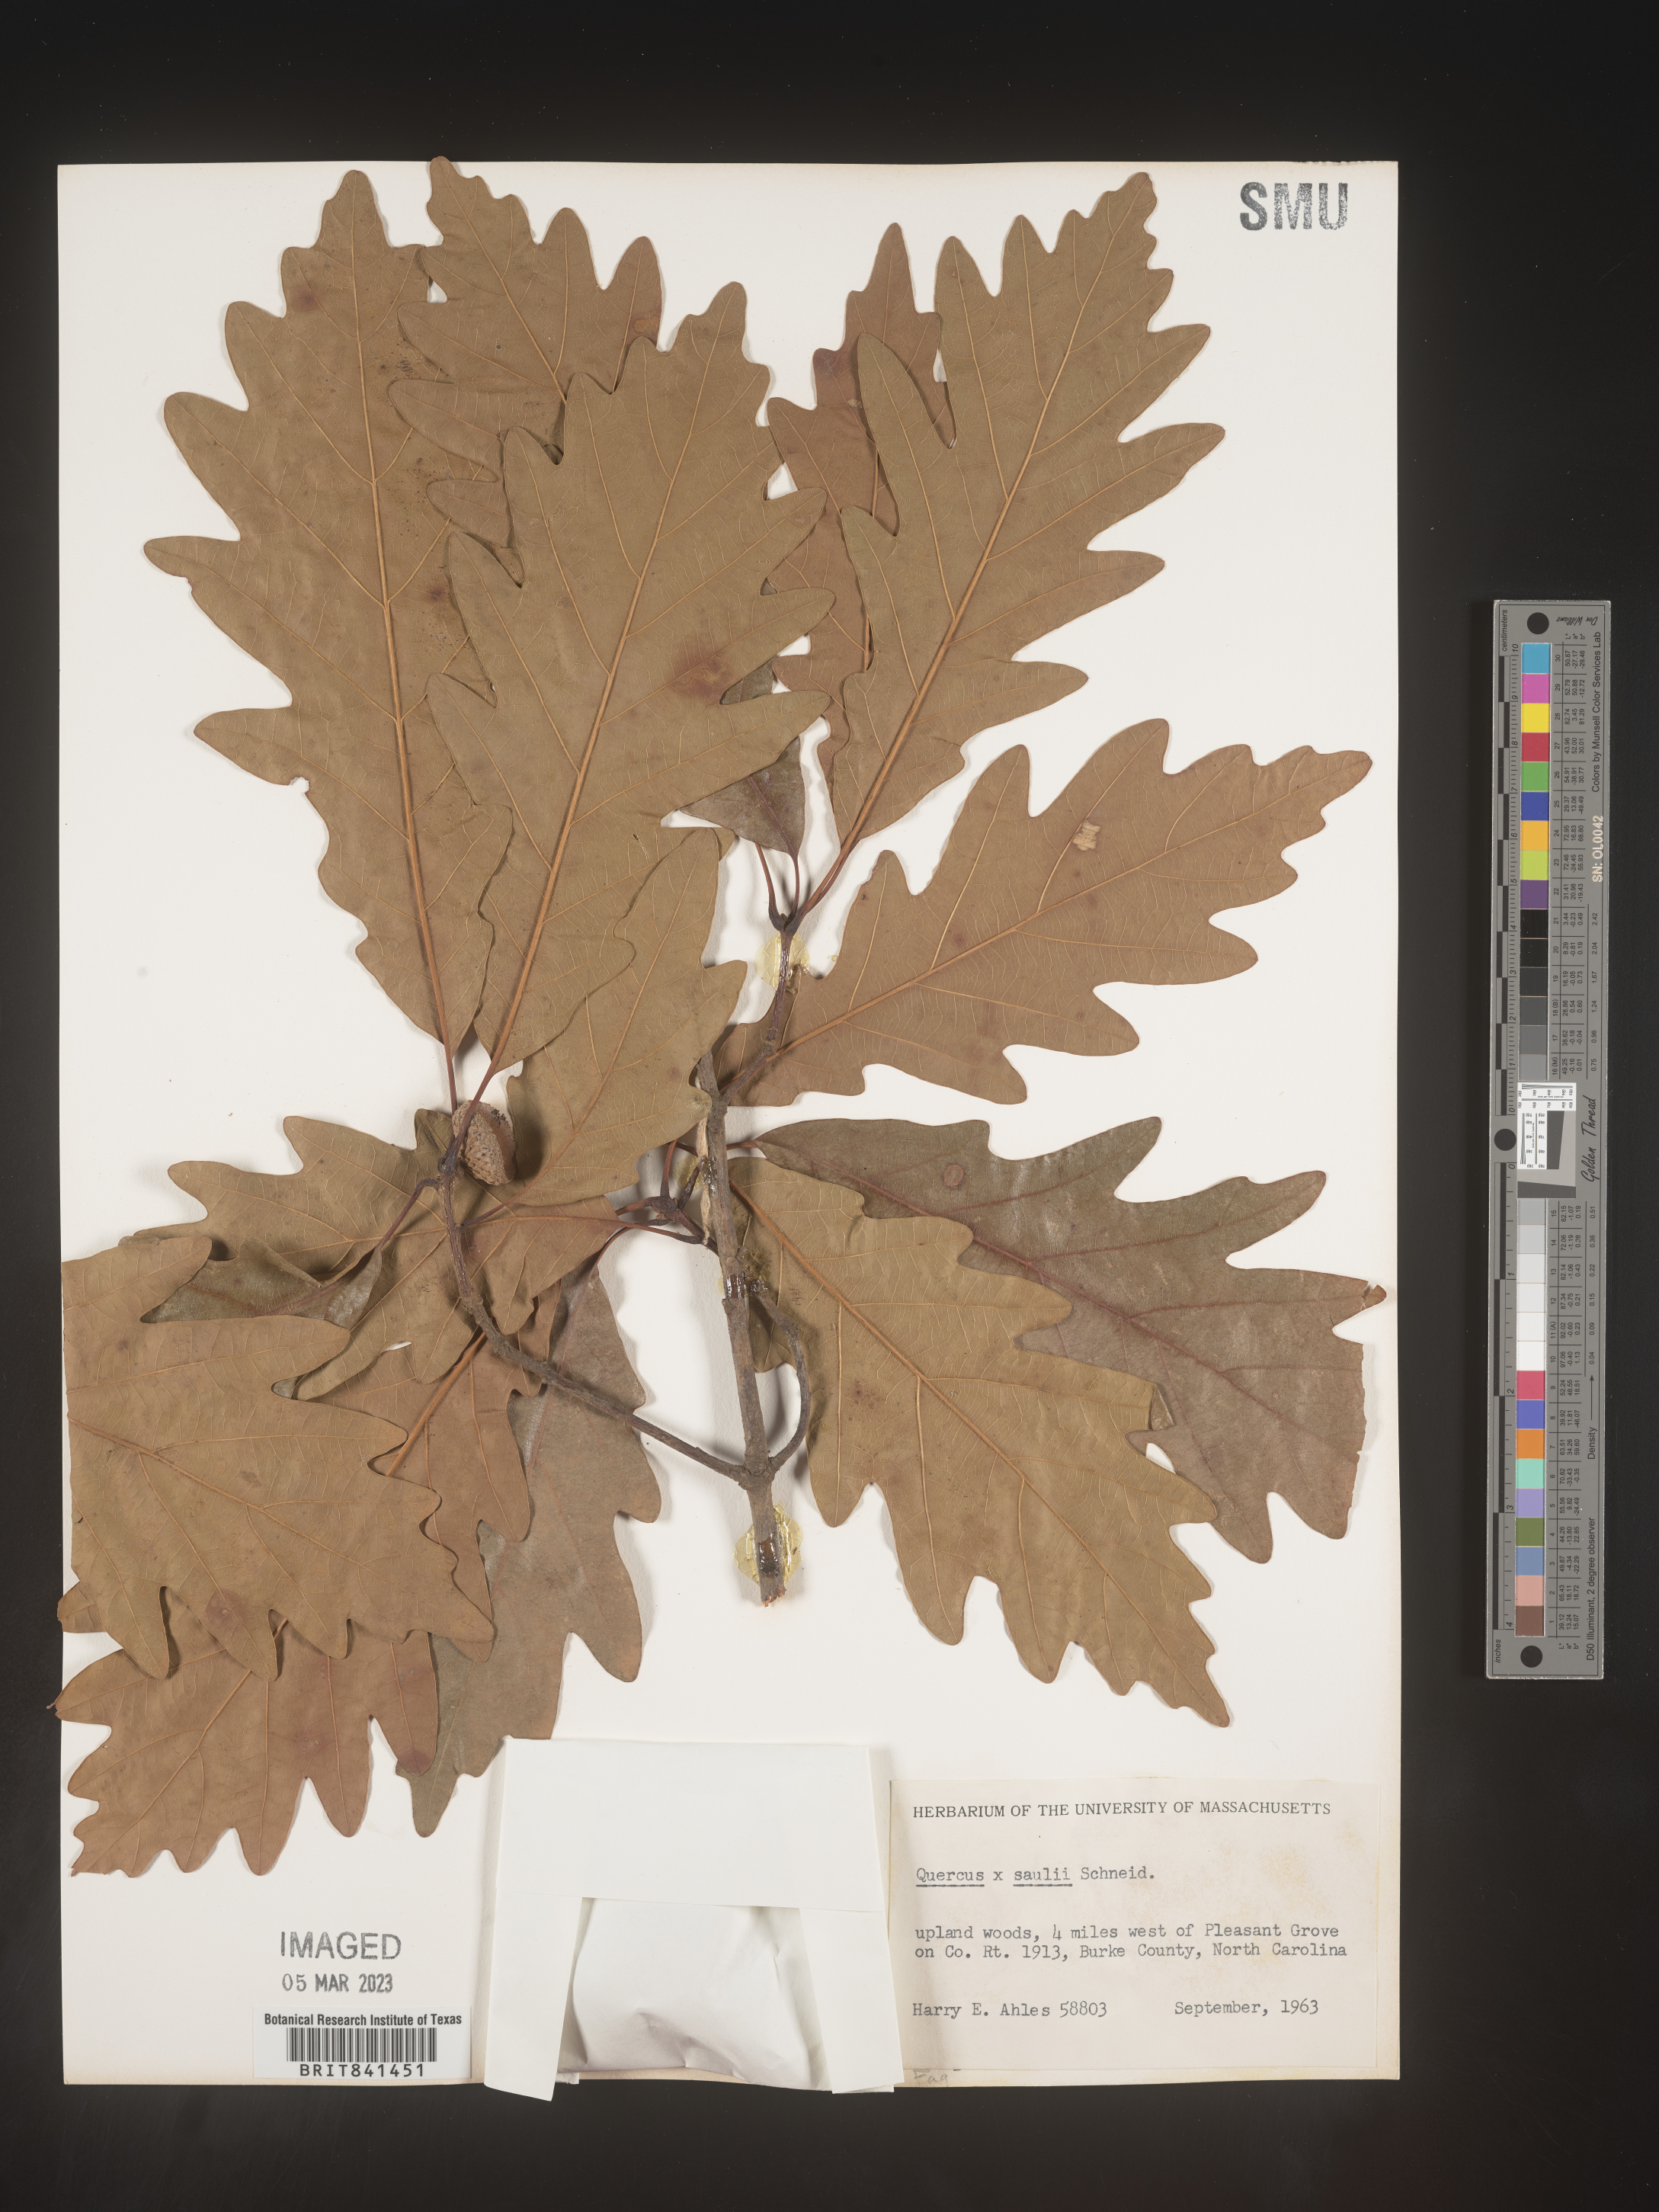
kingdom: Plantae
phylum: Tracheophyta
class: Magnoliopsida
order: Fagales
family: Fagaceae
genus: Quercus
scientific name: Quercus saulii
